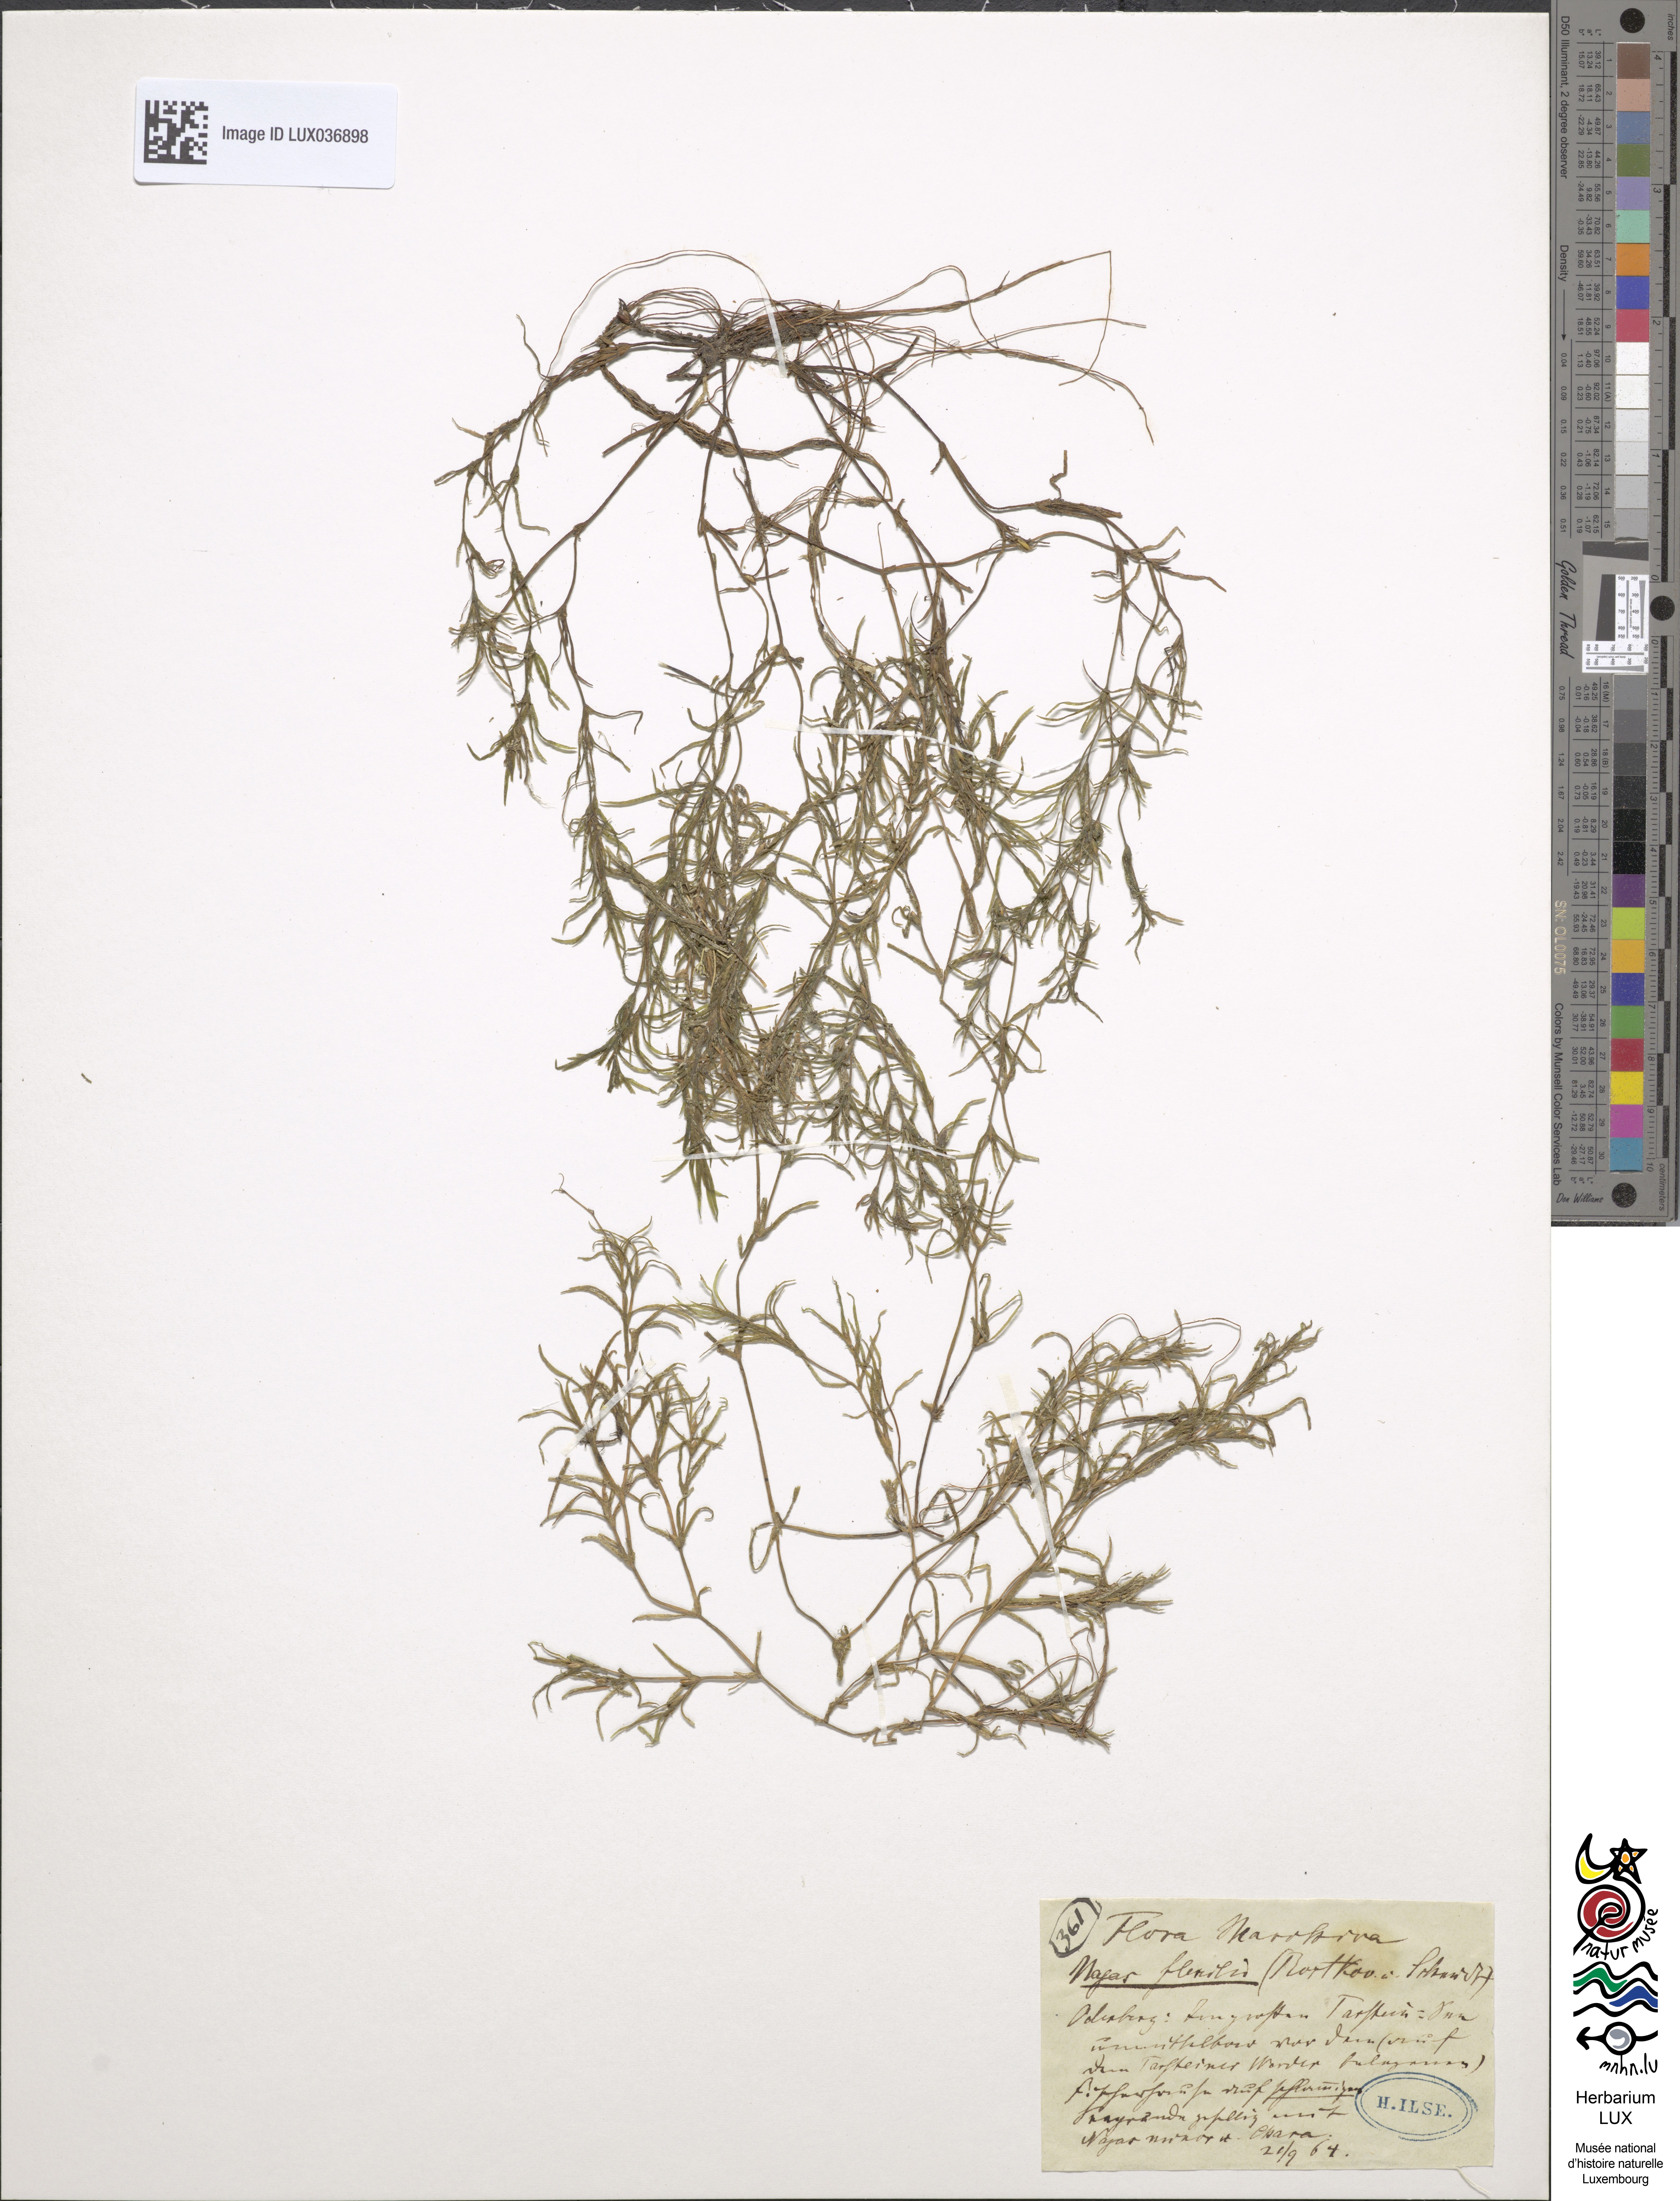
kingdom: Plantae
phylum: Tracheophyta
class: Liliopsida
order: Alismatales
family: Hydrocharitaceae
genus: Najas
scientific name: Najas flexilis
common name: Slender naiad
